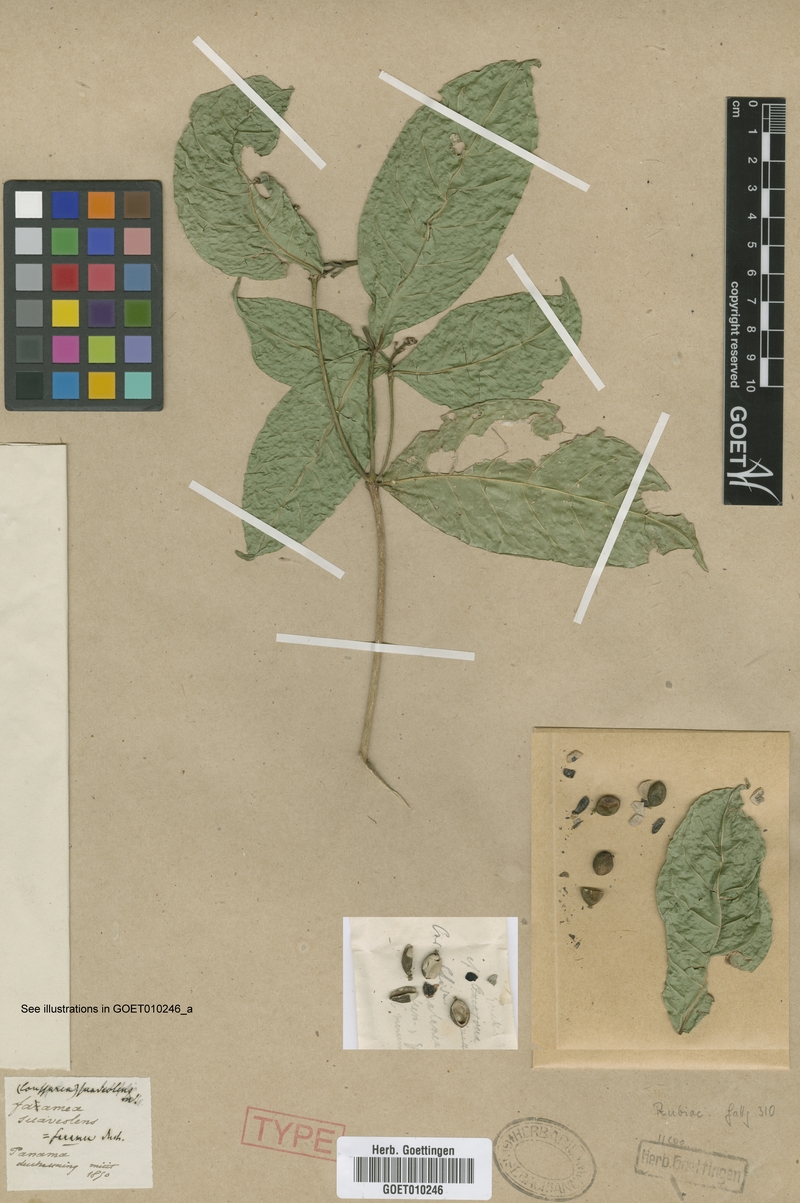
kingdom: Plantae
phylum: Tracheophyta
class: Magnoliopsida
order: Gentianales
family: Rubiaceae
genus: Coussarea
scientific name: Coussarea suaveolens
